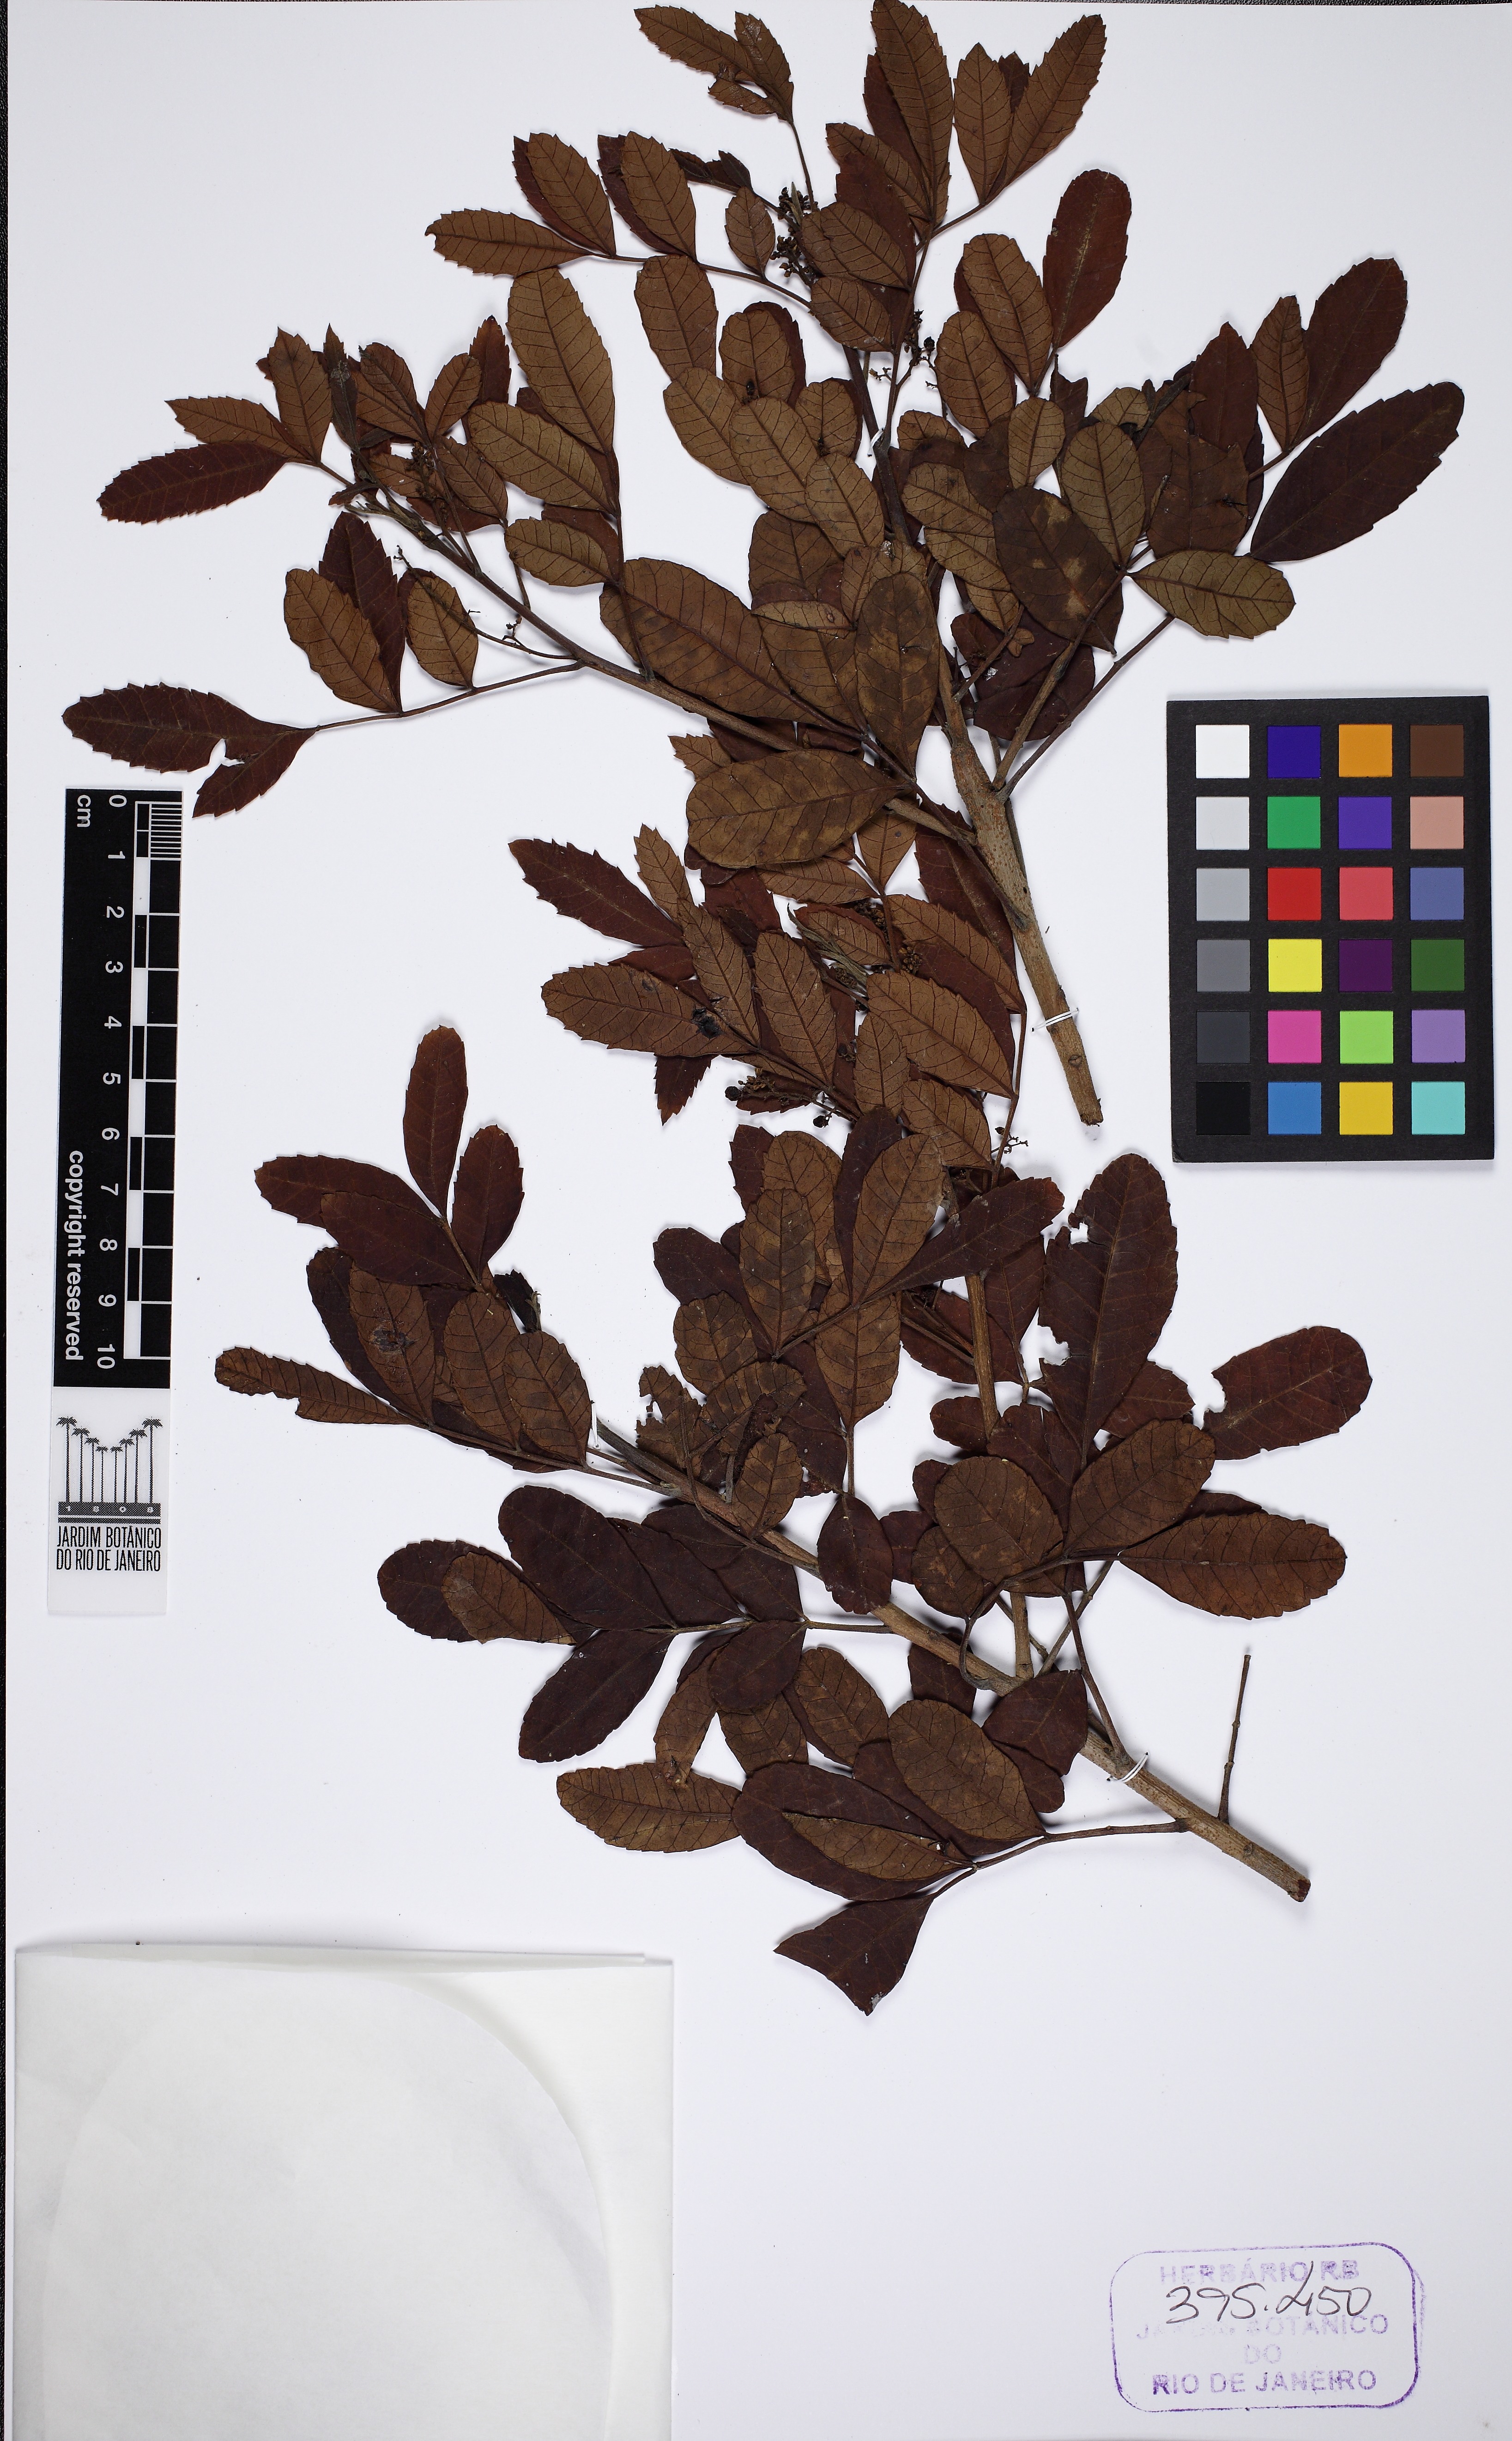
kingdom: Plantae
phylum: Tracheophyta
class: Magnoliopsida
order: Sapindales
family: Anacardiaceae
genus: Schinus
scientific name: Schinus terebinthifolia
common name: Brazilian peppertree
